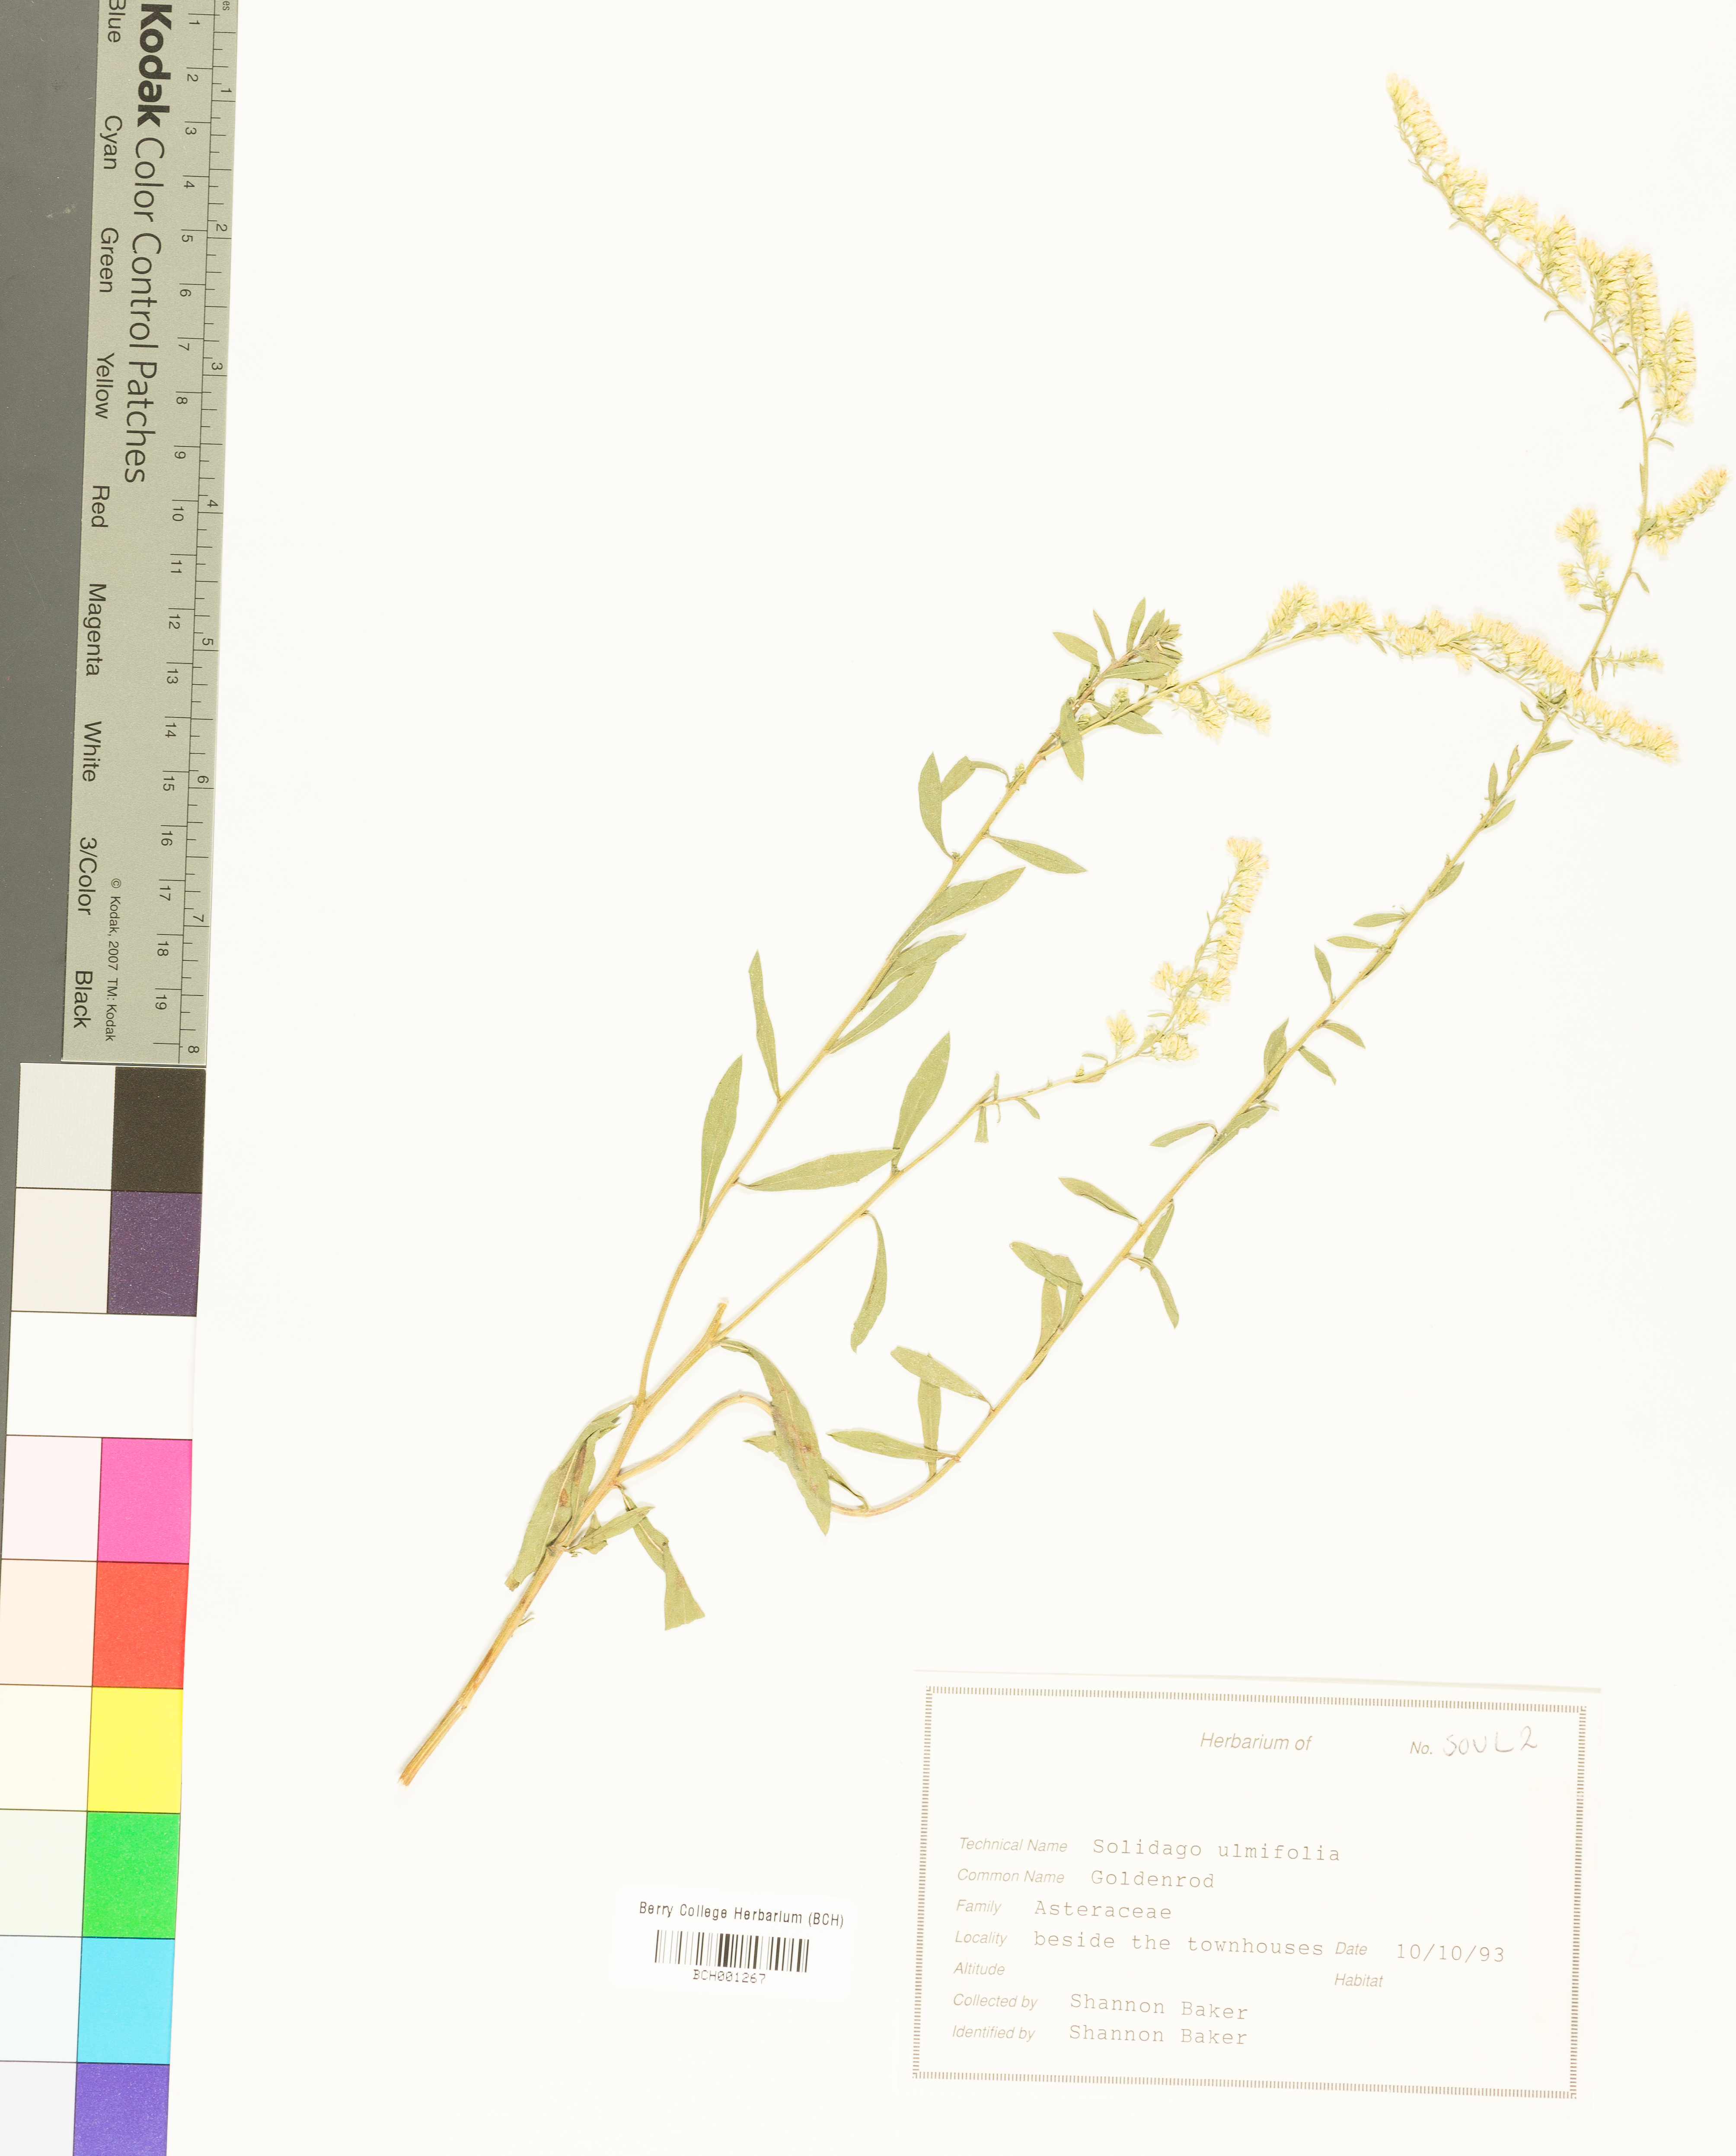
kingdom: Plantae
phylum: Tracheophyta
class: Magnoliopsida
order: Asterales
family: Asteraceae
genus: Solidago
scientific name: Solidago ulmifolia
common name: Elm-leaf goldenrod
